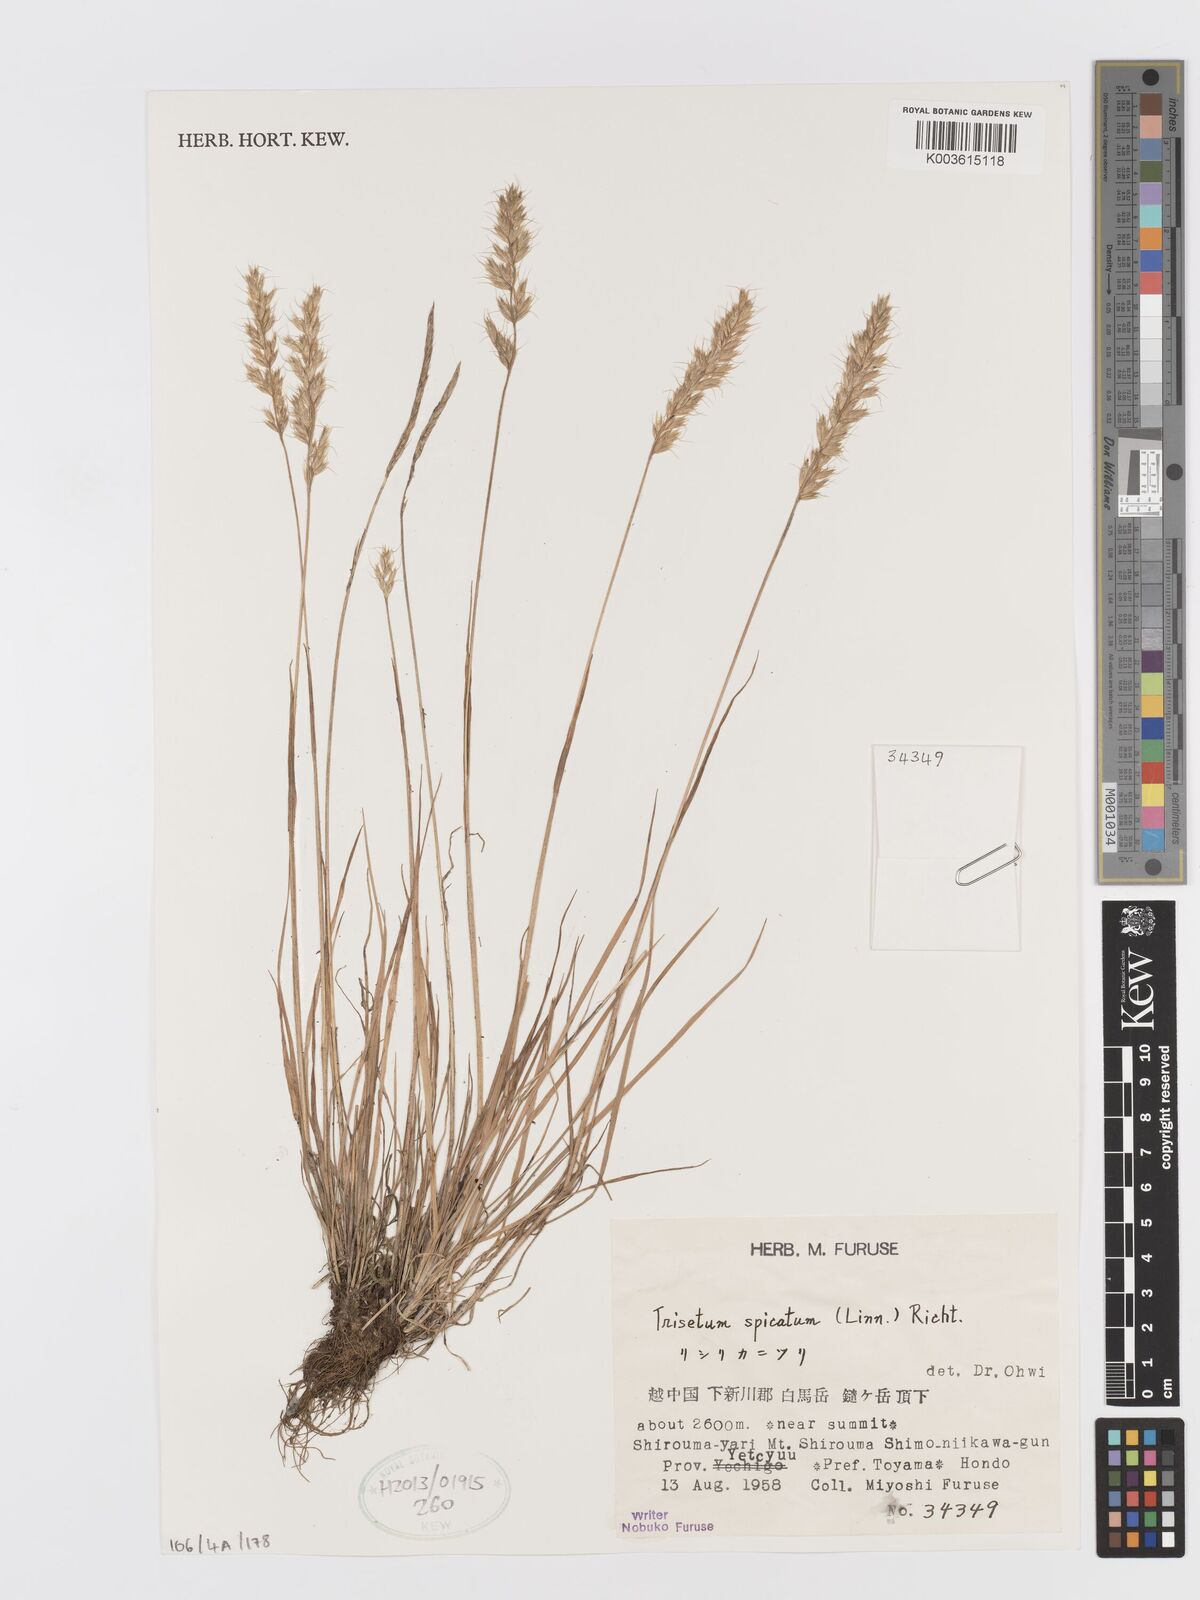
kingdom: Plantae
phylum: Tracheophyta
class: Liliopsida
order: Poales
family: Poaceae
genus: Koeleria
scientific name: Koeleria spicata
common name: Mountain trisetum
